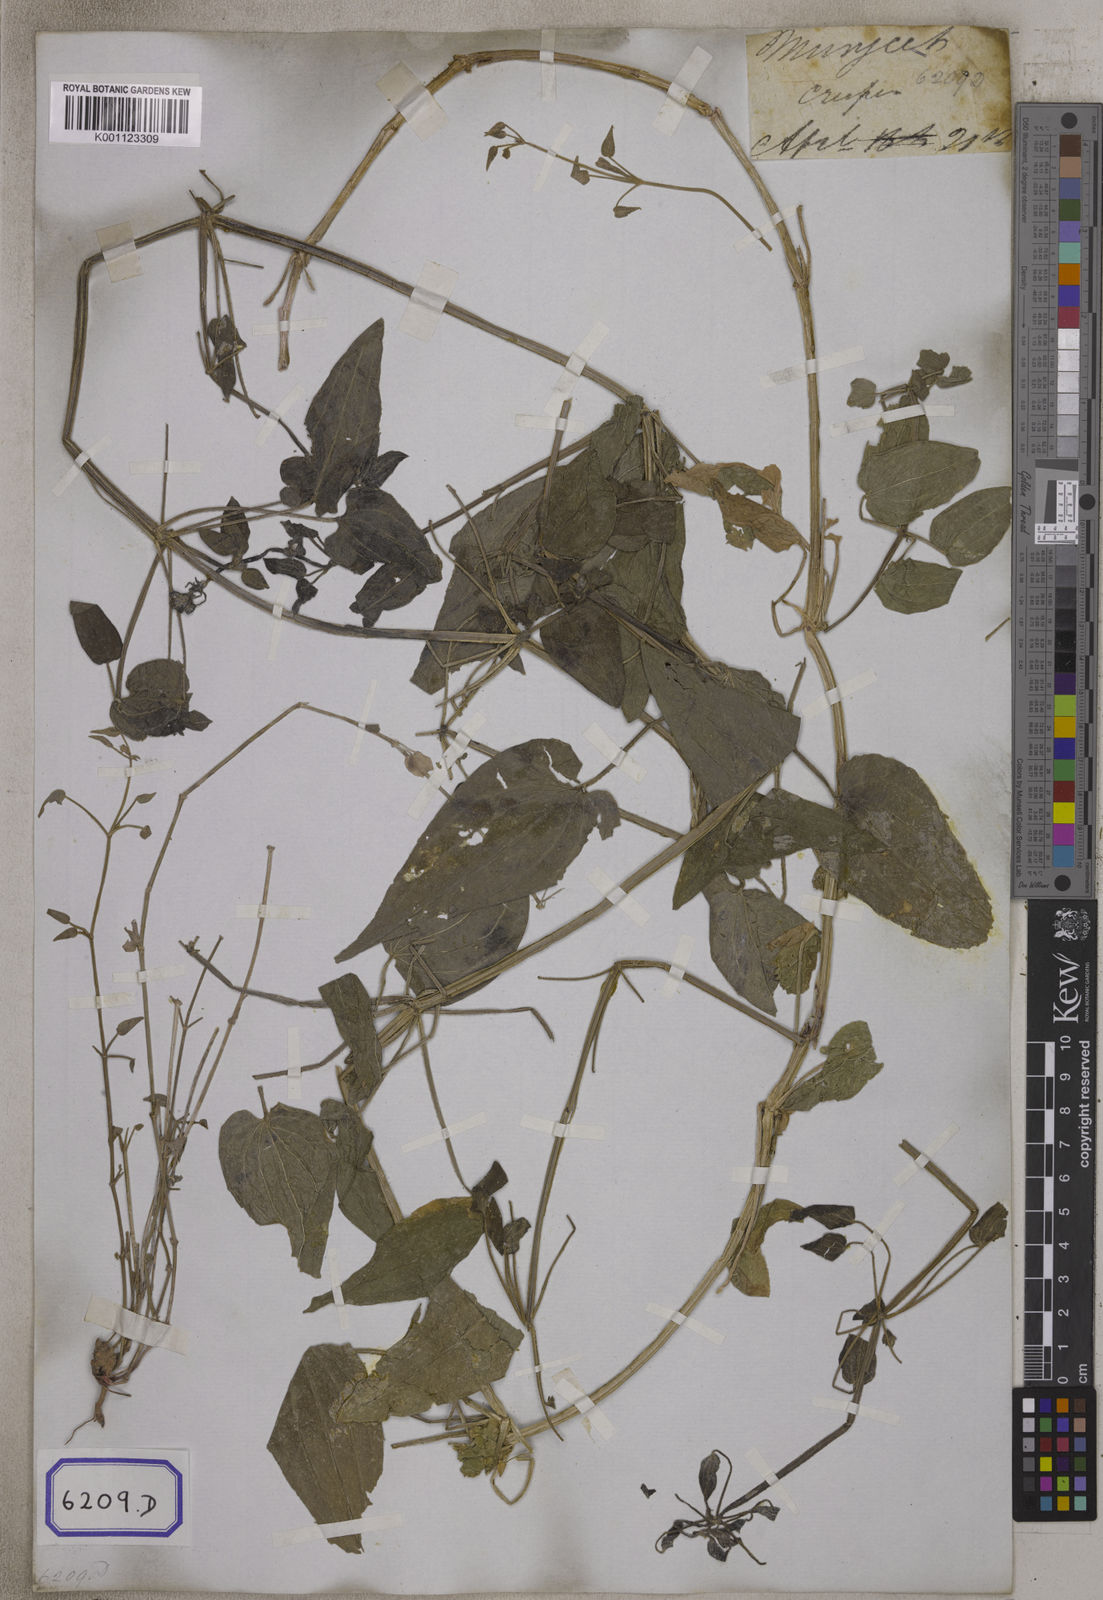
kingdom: Plantae
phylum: Tracheophyta
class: Magnoliopsida
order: Gentianales
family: Rubiaceae
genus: Rubia
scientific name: Rubia cordifolia
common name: Indian madder
